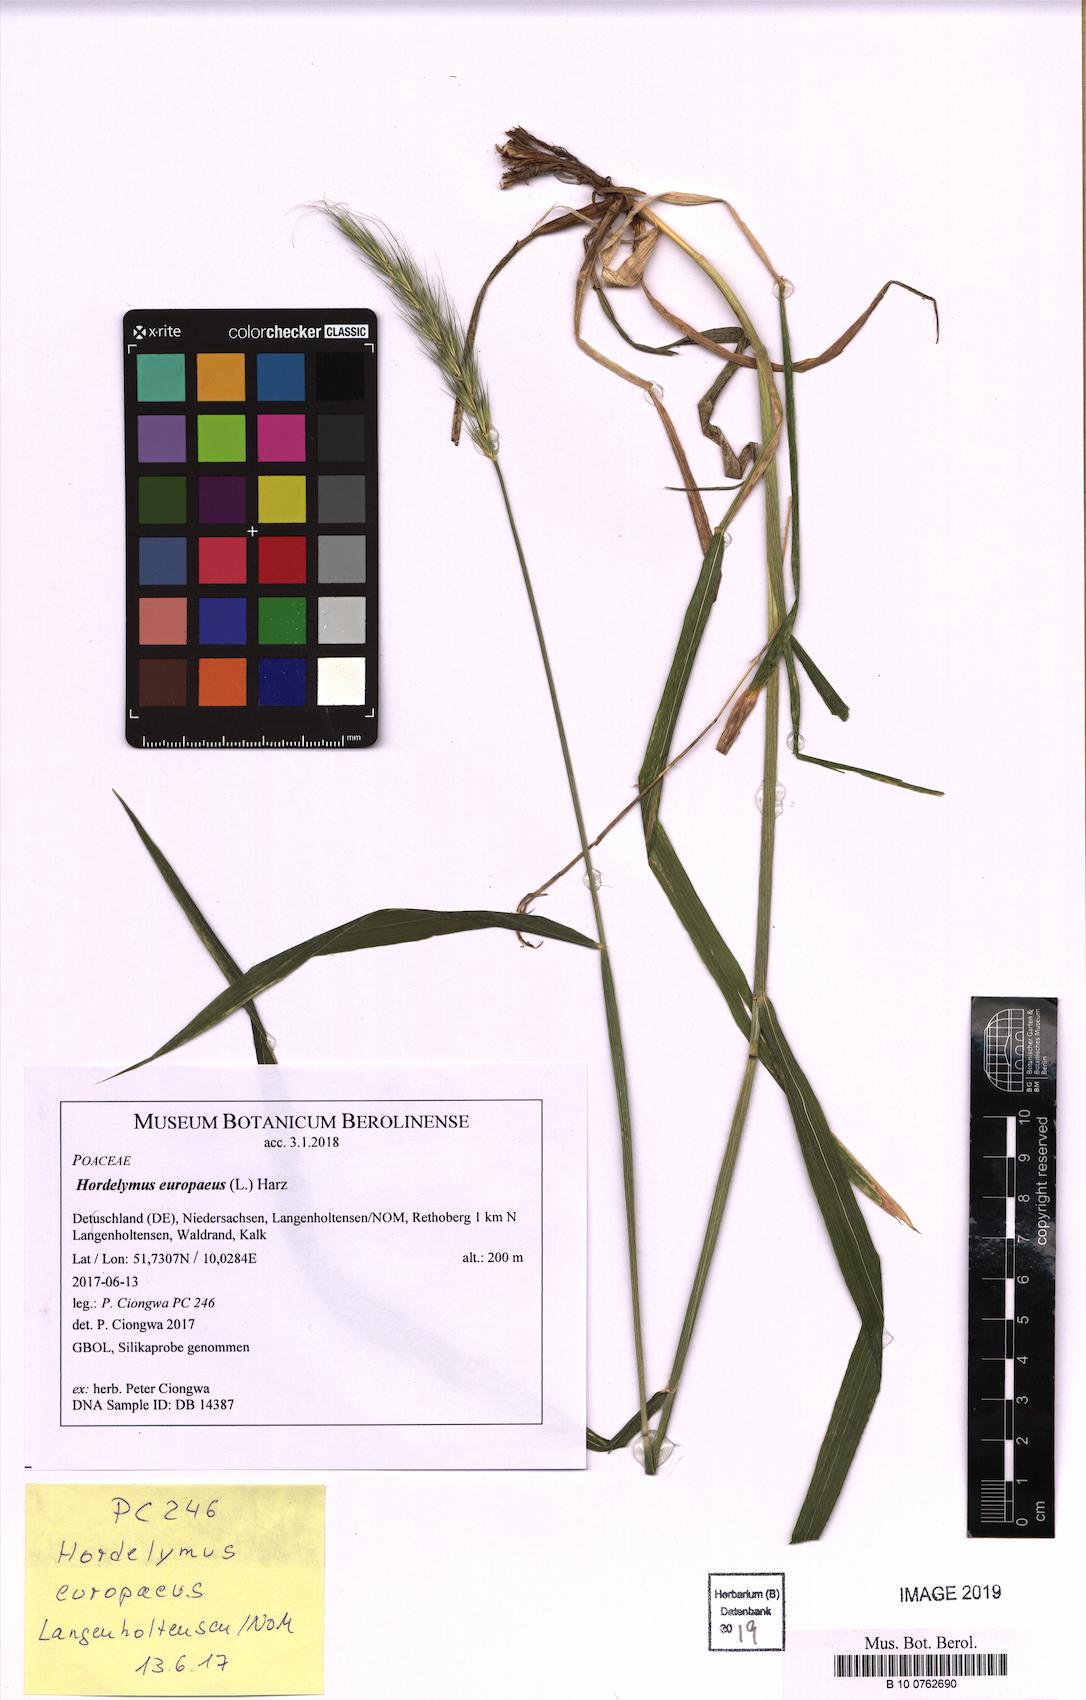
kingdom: Plantae
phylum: Tracheophyta
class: Liliopsida
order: Poales
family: Poaceae
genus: Hordelymus
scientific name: Hordelymus europaeus
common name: Wood-barley
